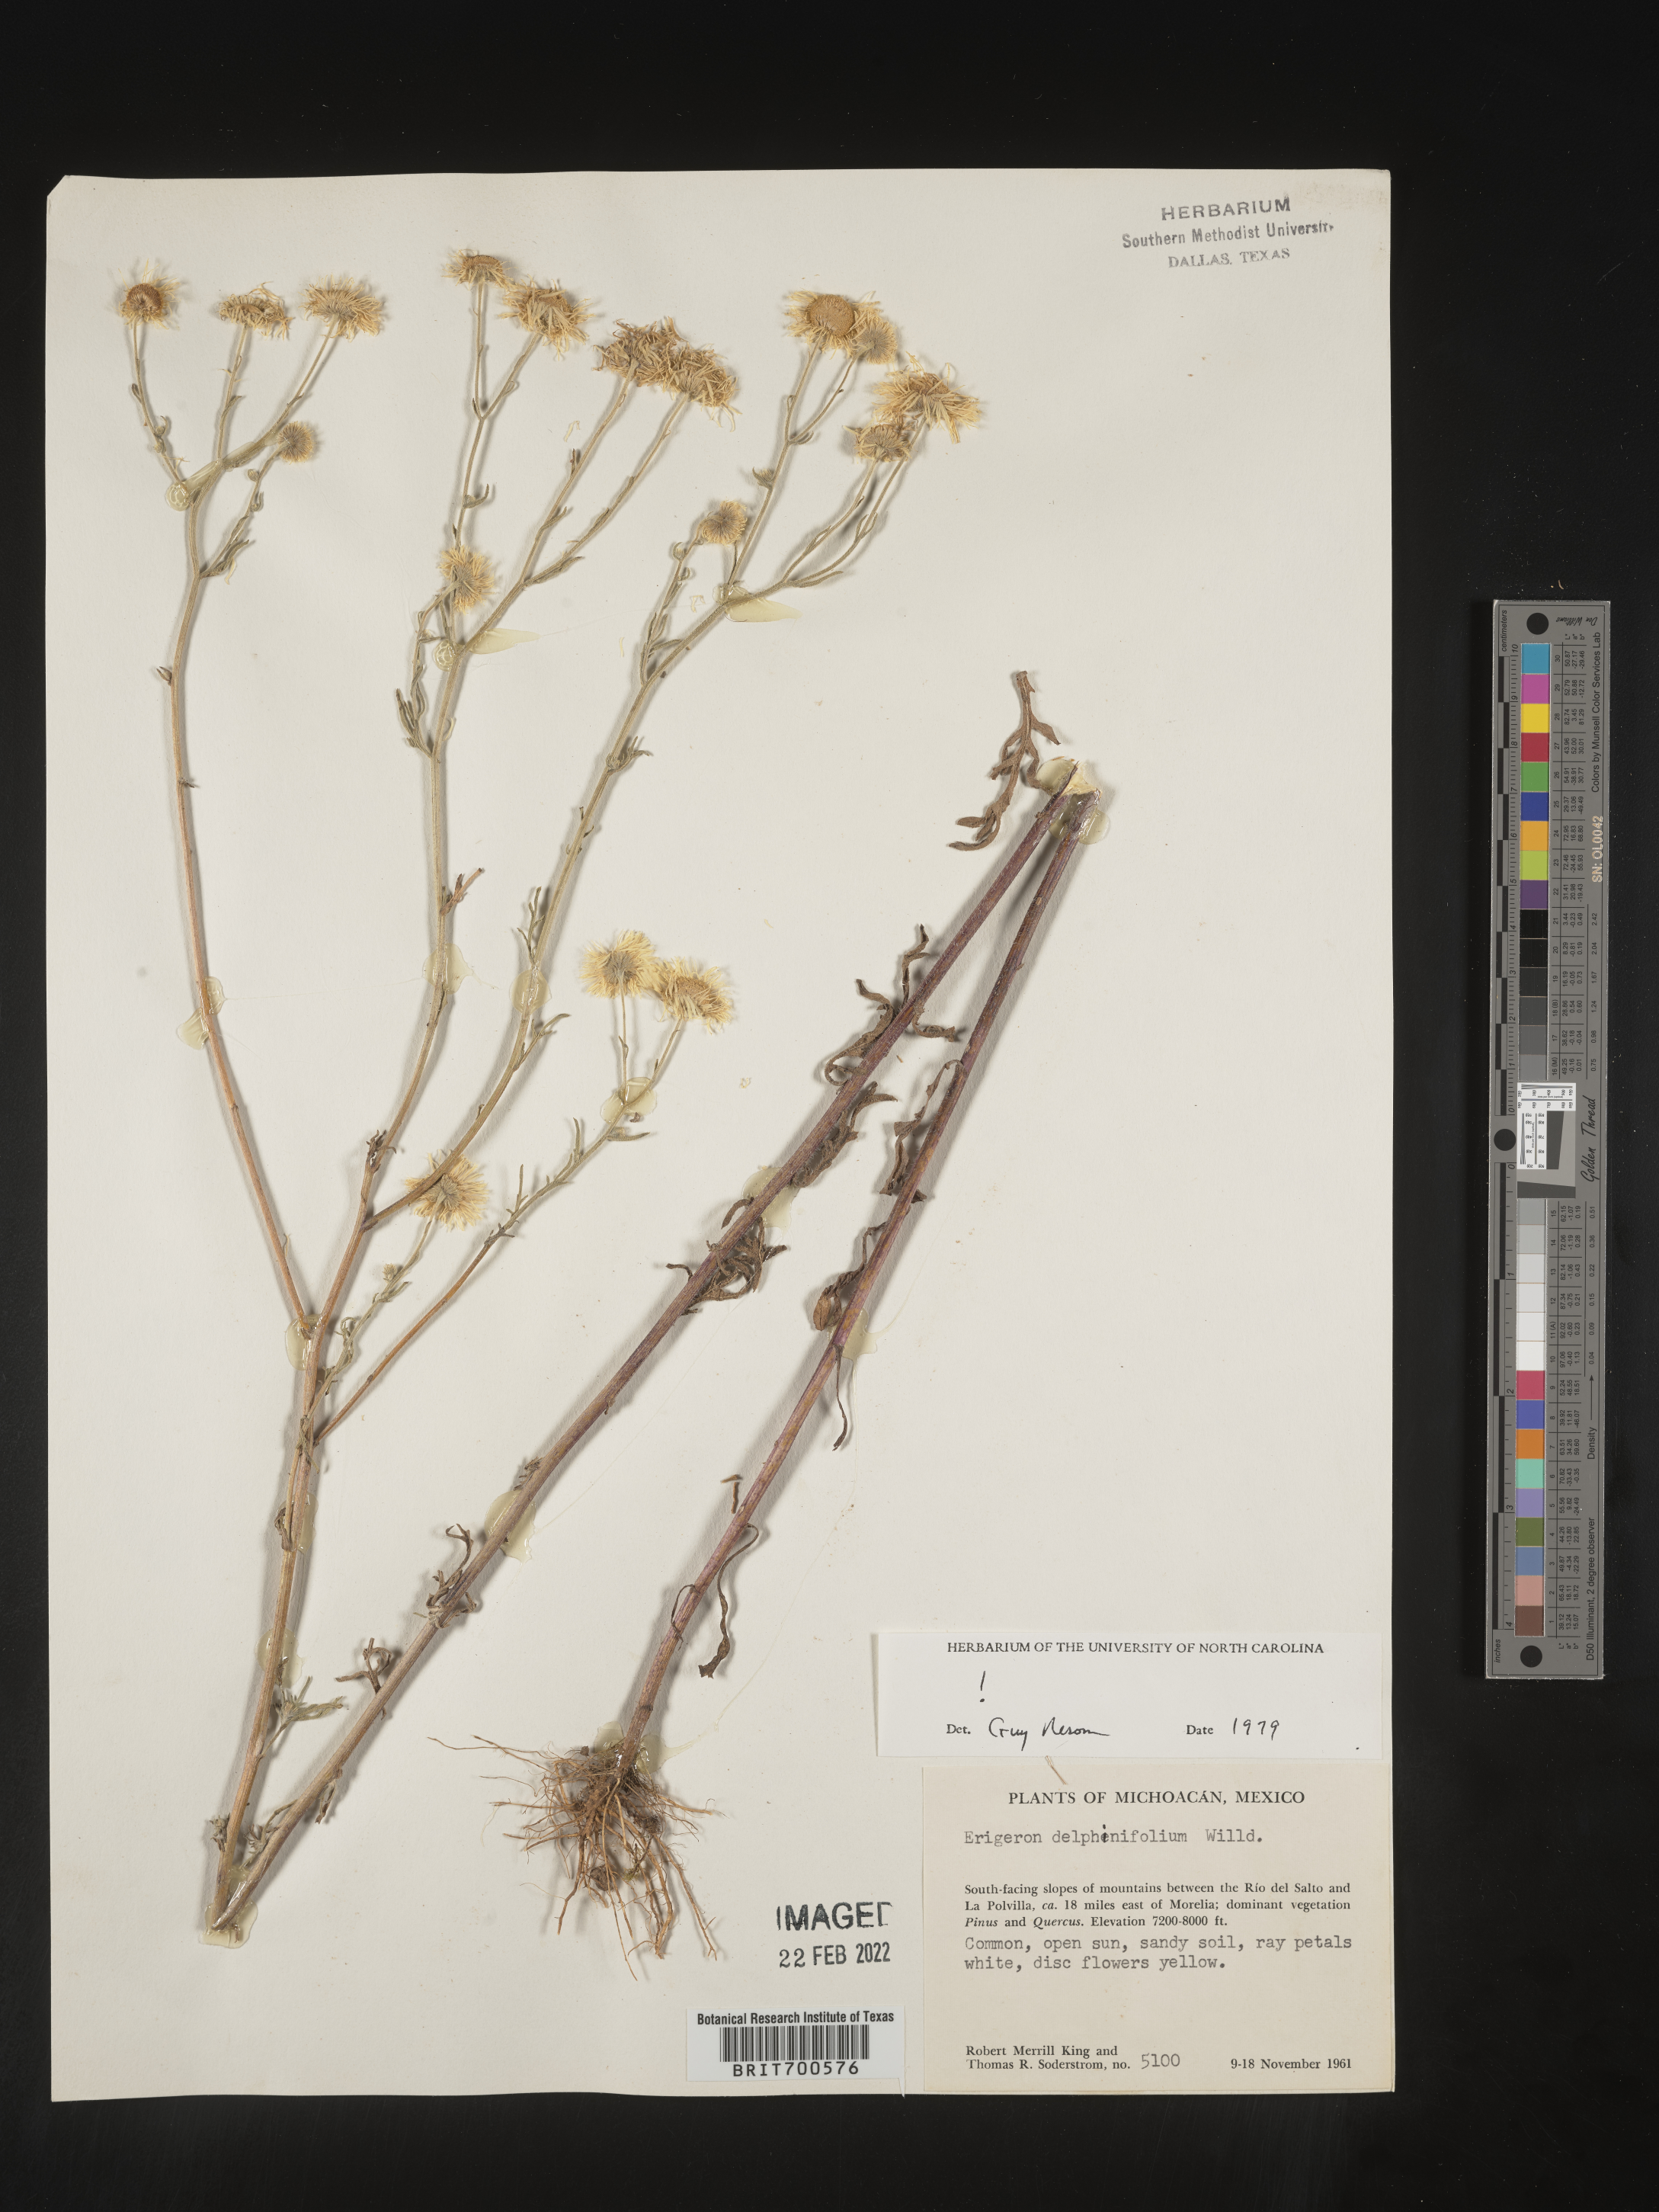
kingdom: Plantae
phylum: Tracheophyta
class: Magnoliopsida
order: Asterales
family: Asteraceae
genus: Erigeron
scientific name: Erigeron delphinifolius
